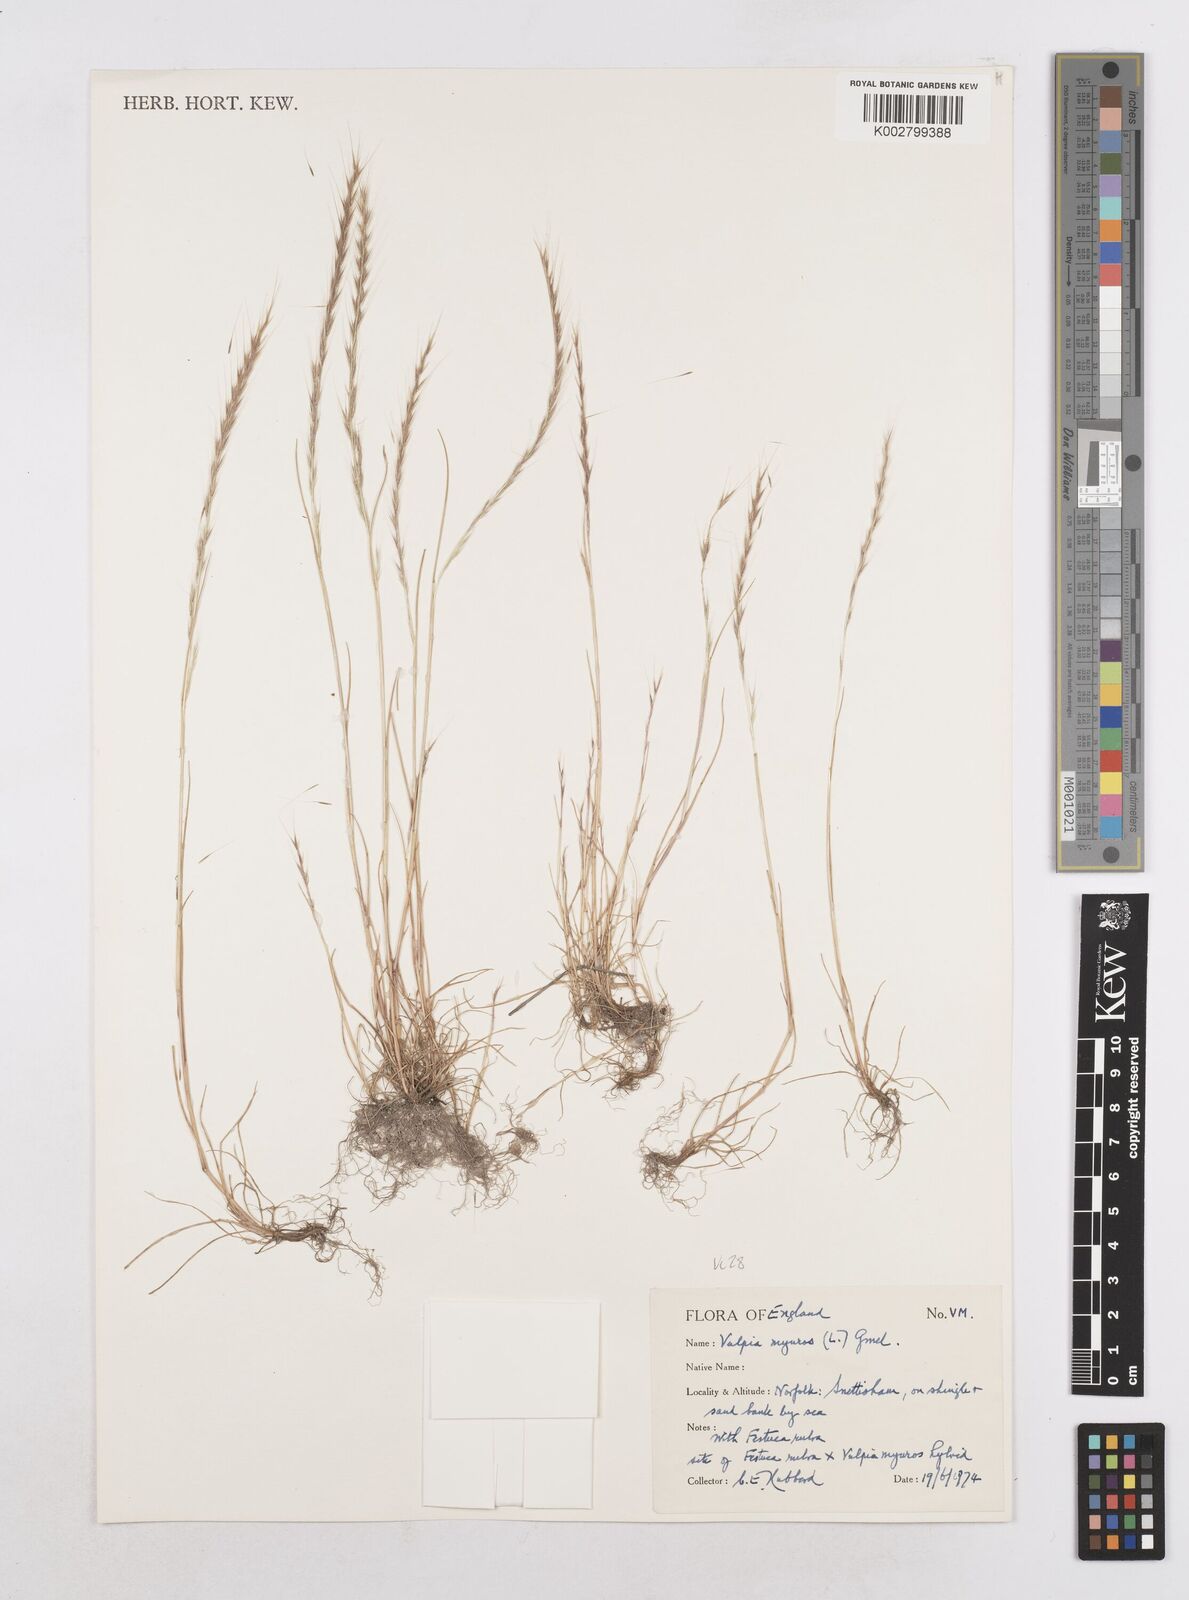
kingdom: Plantae
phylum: Tracheophyta
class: Liliopsida
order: Poales
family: Poaceae
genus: Festuca
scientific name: Festuca myuros
